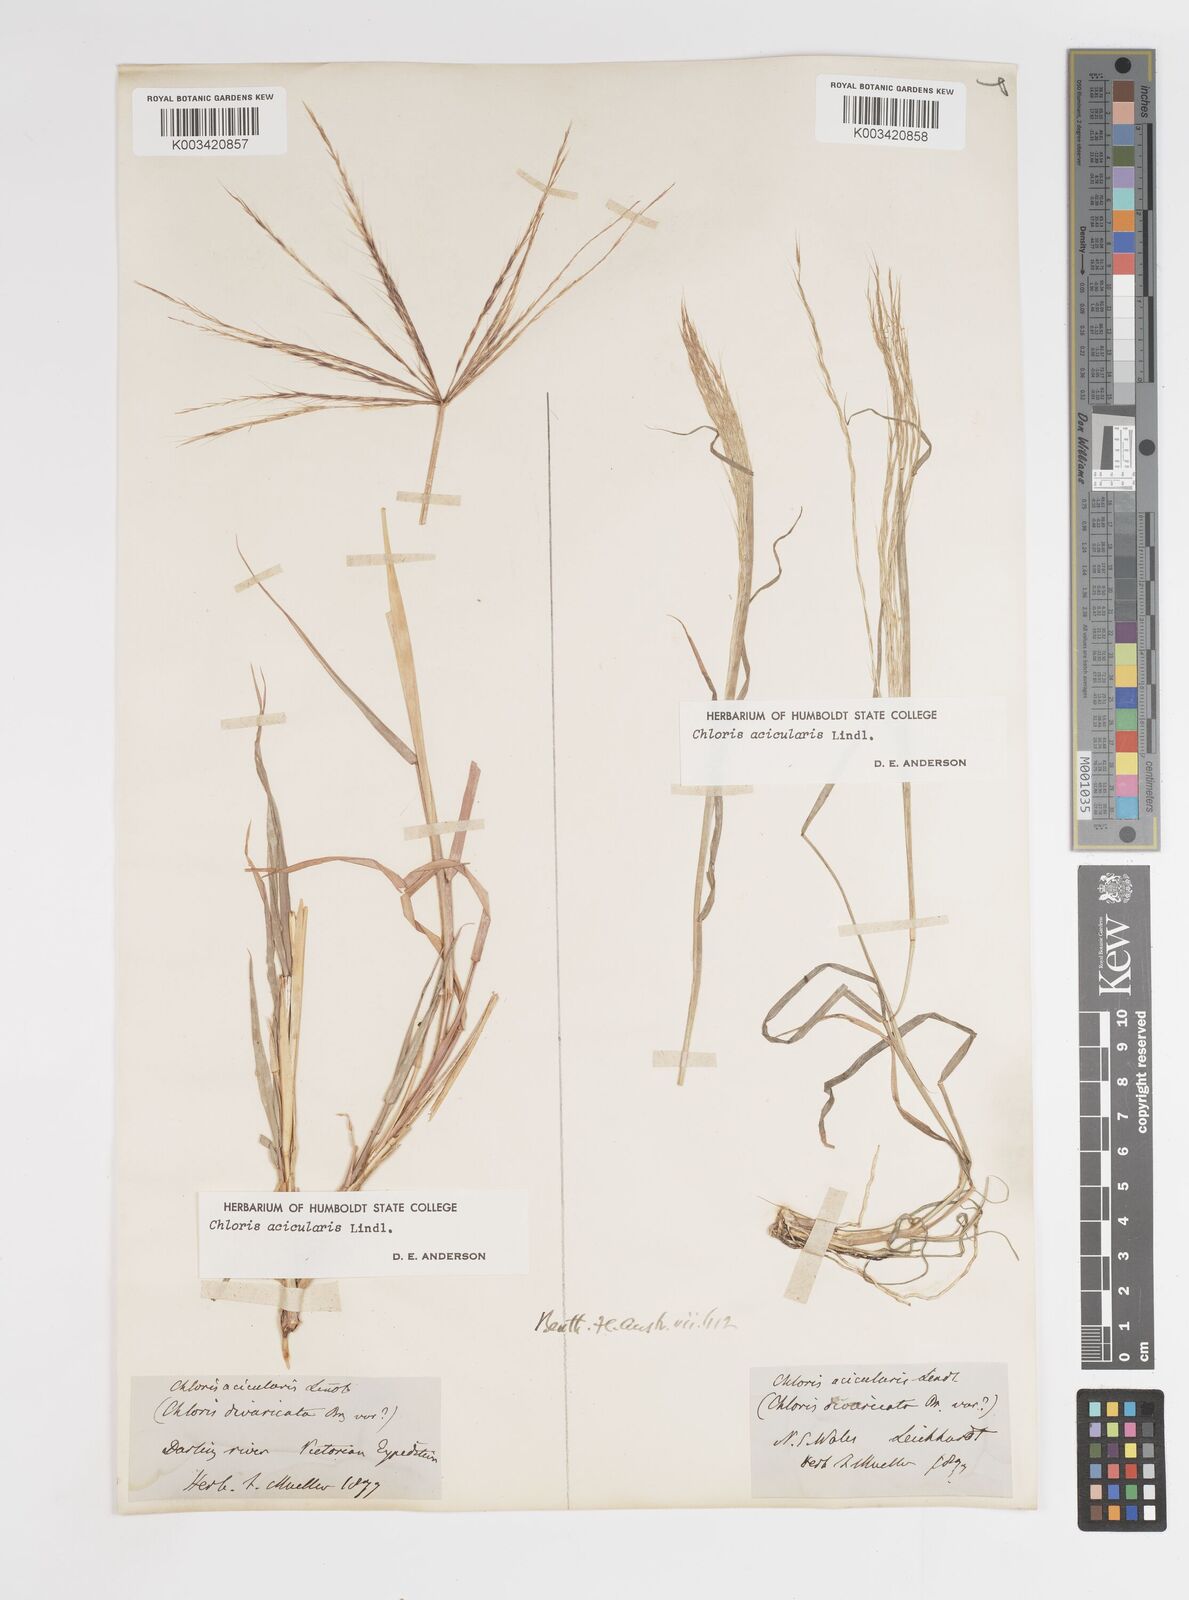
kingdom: Plantae
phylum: Tracheophyta
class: Liliopsida
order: Poales
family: Poaceae
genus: Enteropogon
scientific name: Enteropogon acicularis
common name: Curly windmill grass
